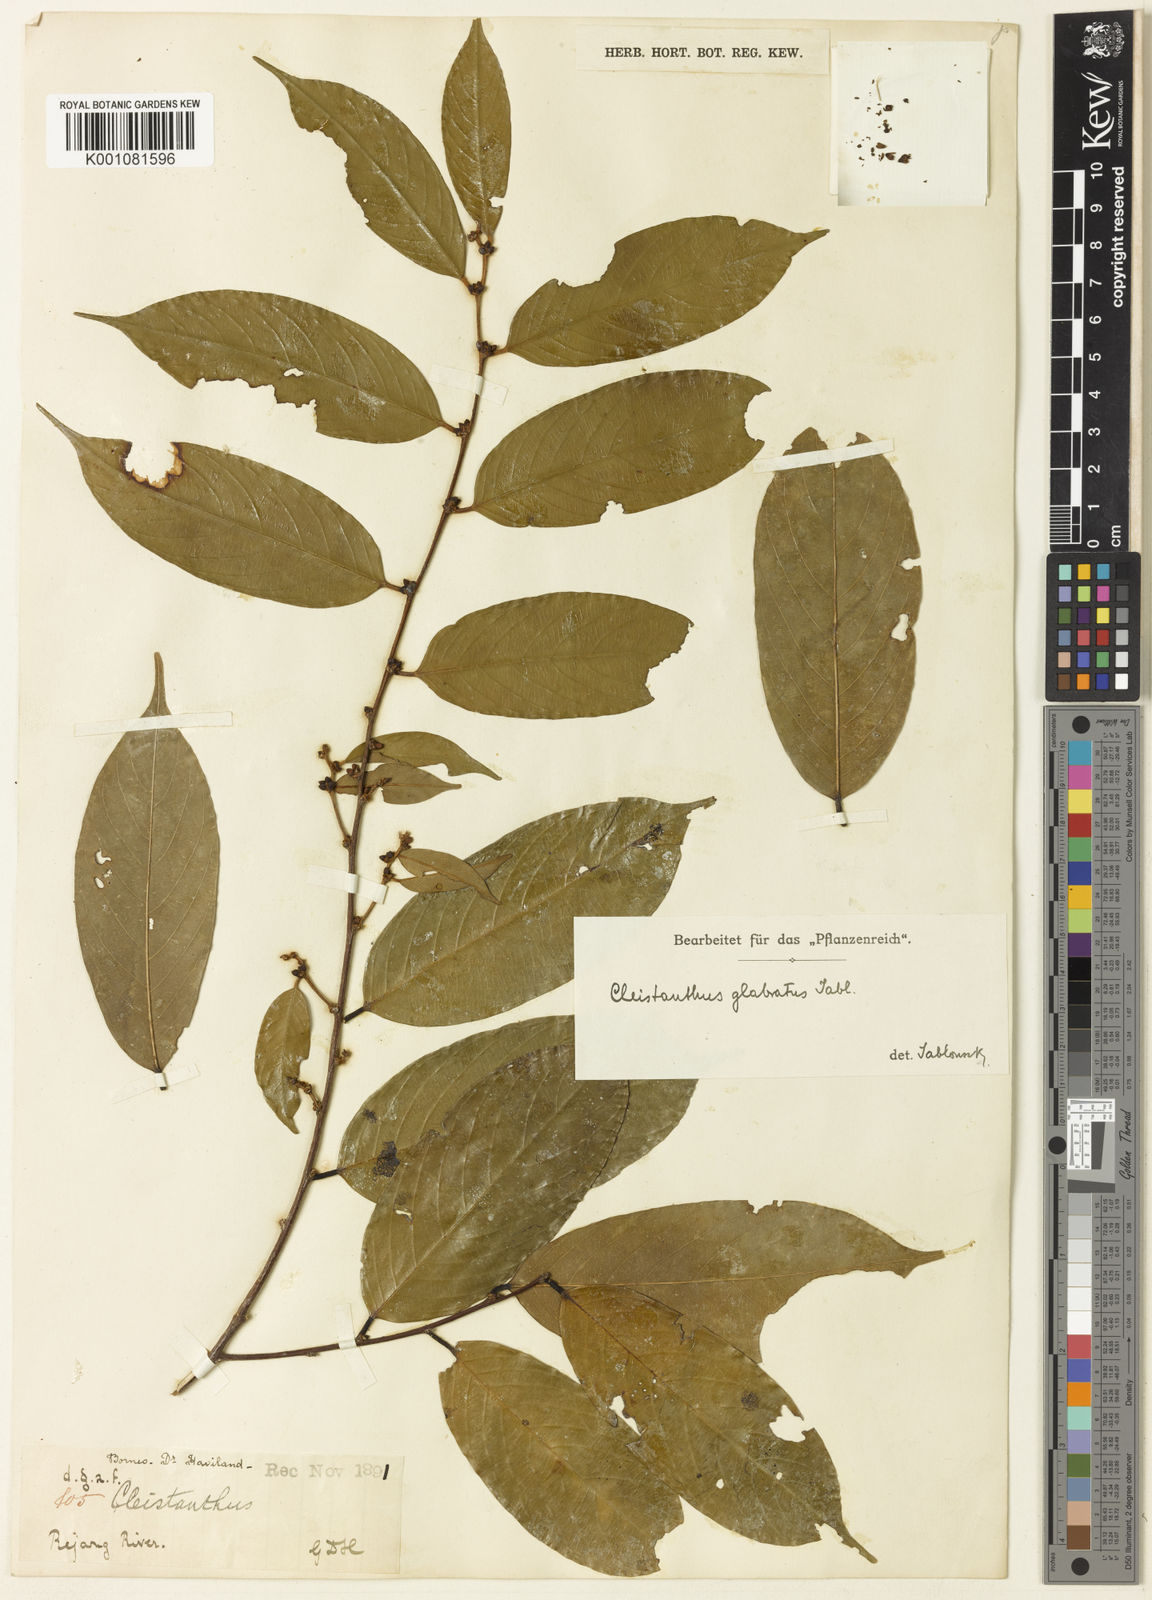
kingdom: Plantae
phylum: Tracheophyta
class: Magnoliopsida
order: Malpighiales
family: Phyllanthaceae
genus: Cleistanthus
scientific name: Cleistanthus glabratus
